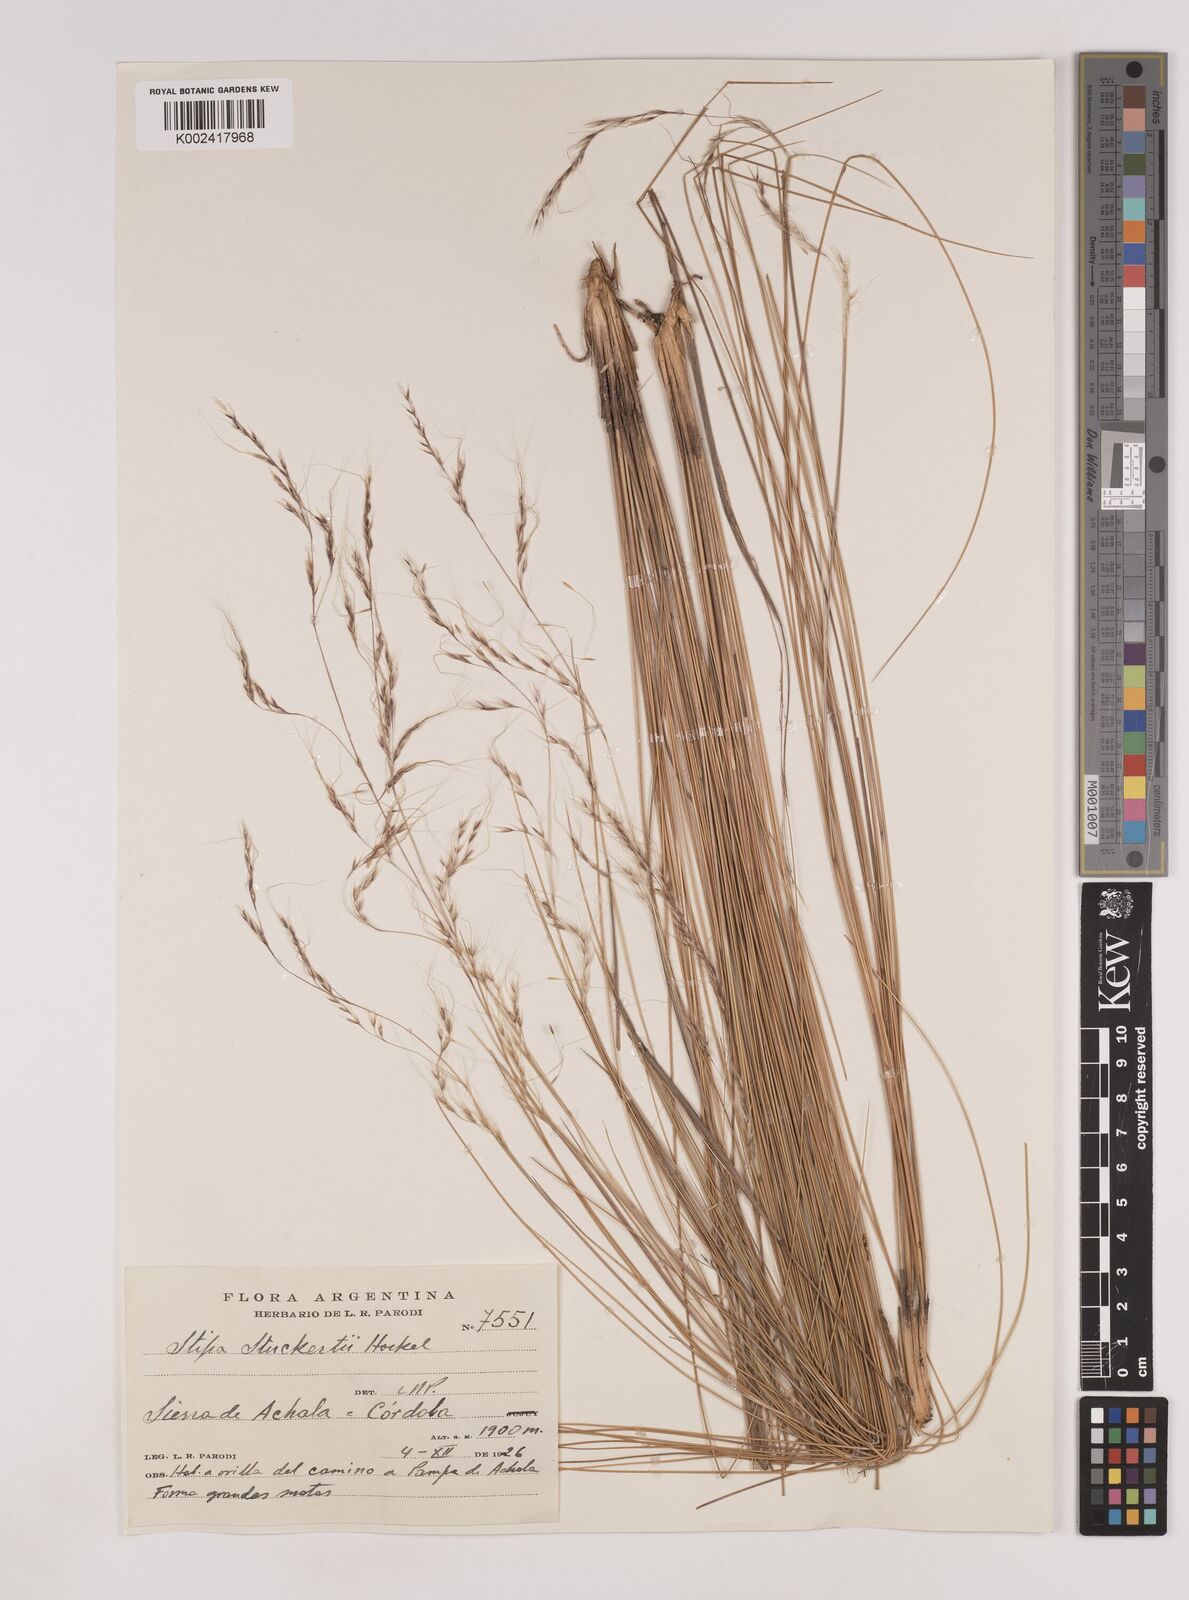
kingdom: Plantae
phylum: Tracheophyta
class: Liliopsida
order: Poales
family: Poaceae
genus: Nassella
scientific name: Nassella stuckertii
